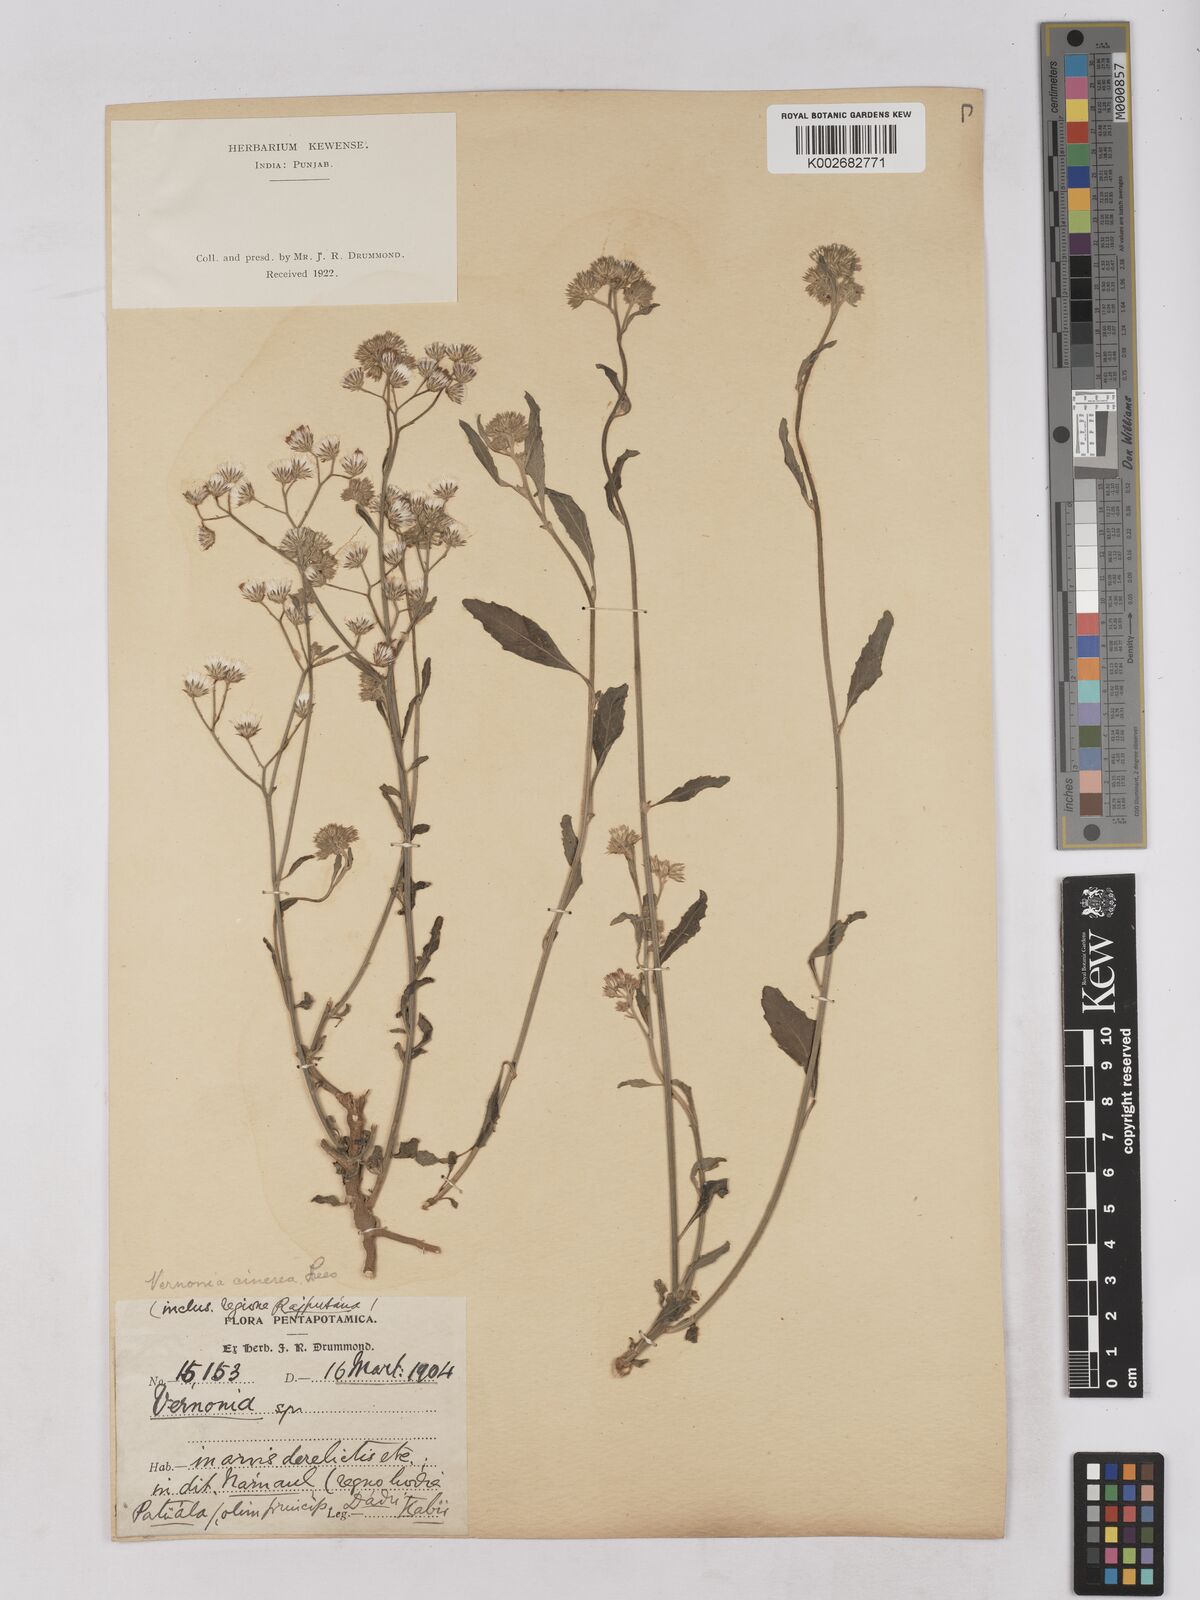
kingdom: Plantae
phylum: Tracheophyta
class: Magnoliopsida
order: Asterales
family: Asteraceae
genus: Cyanthillium
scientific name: Cyanthillium cinereum
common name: Little ironweed
